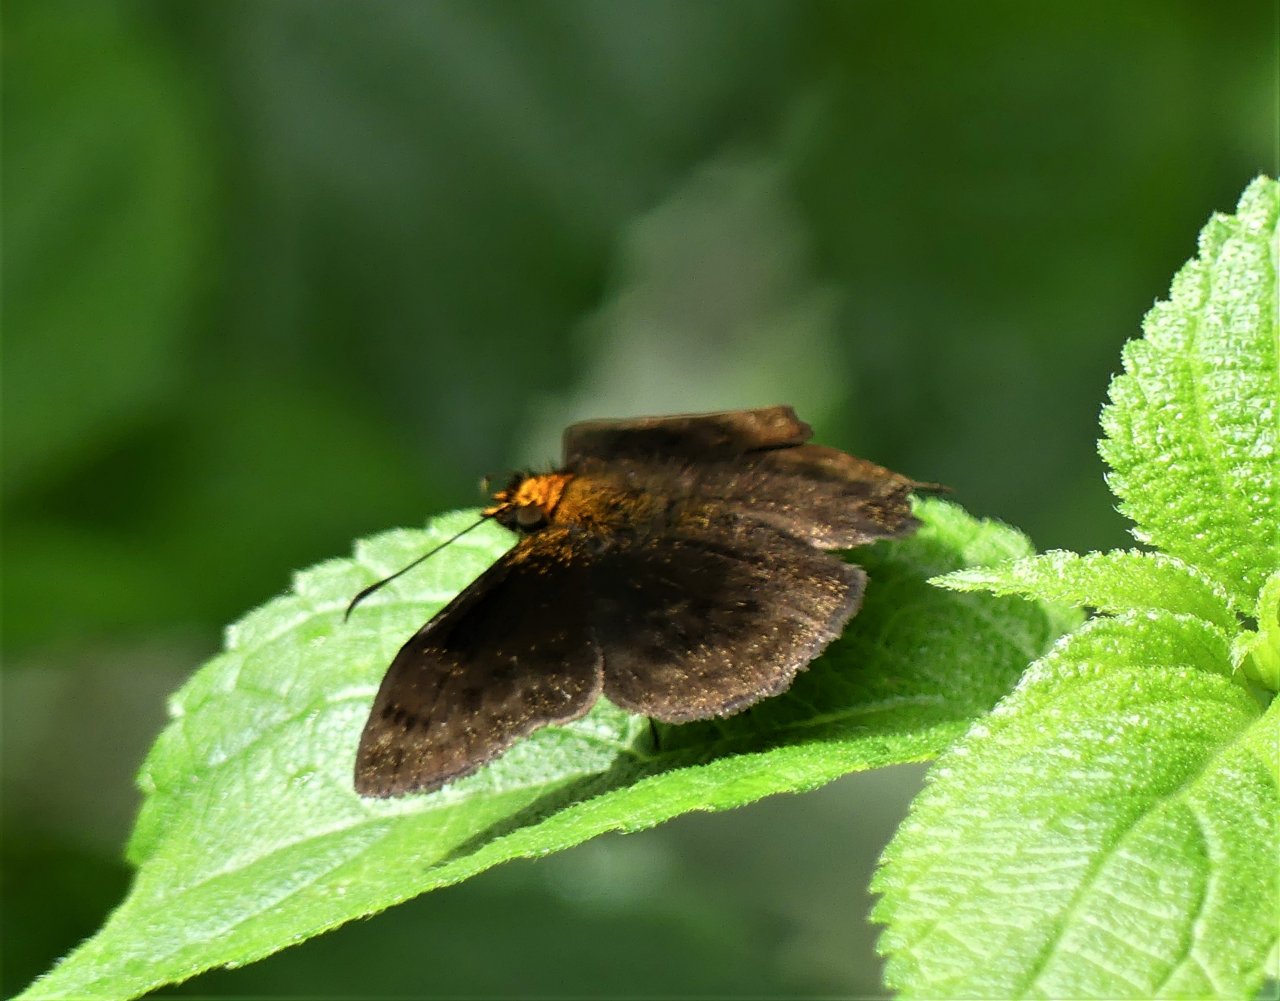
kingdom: Animalia
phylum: Arthropoda
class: Insecta
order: Lepidoptera
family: Hesperiidae
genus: Bolla
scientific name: Bolla cupreiceps
